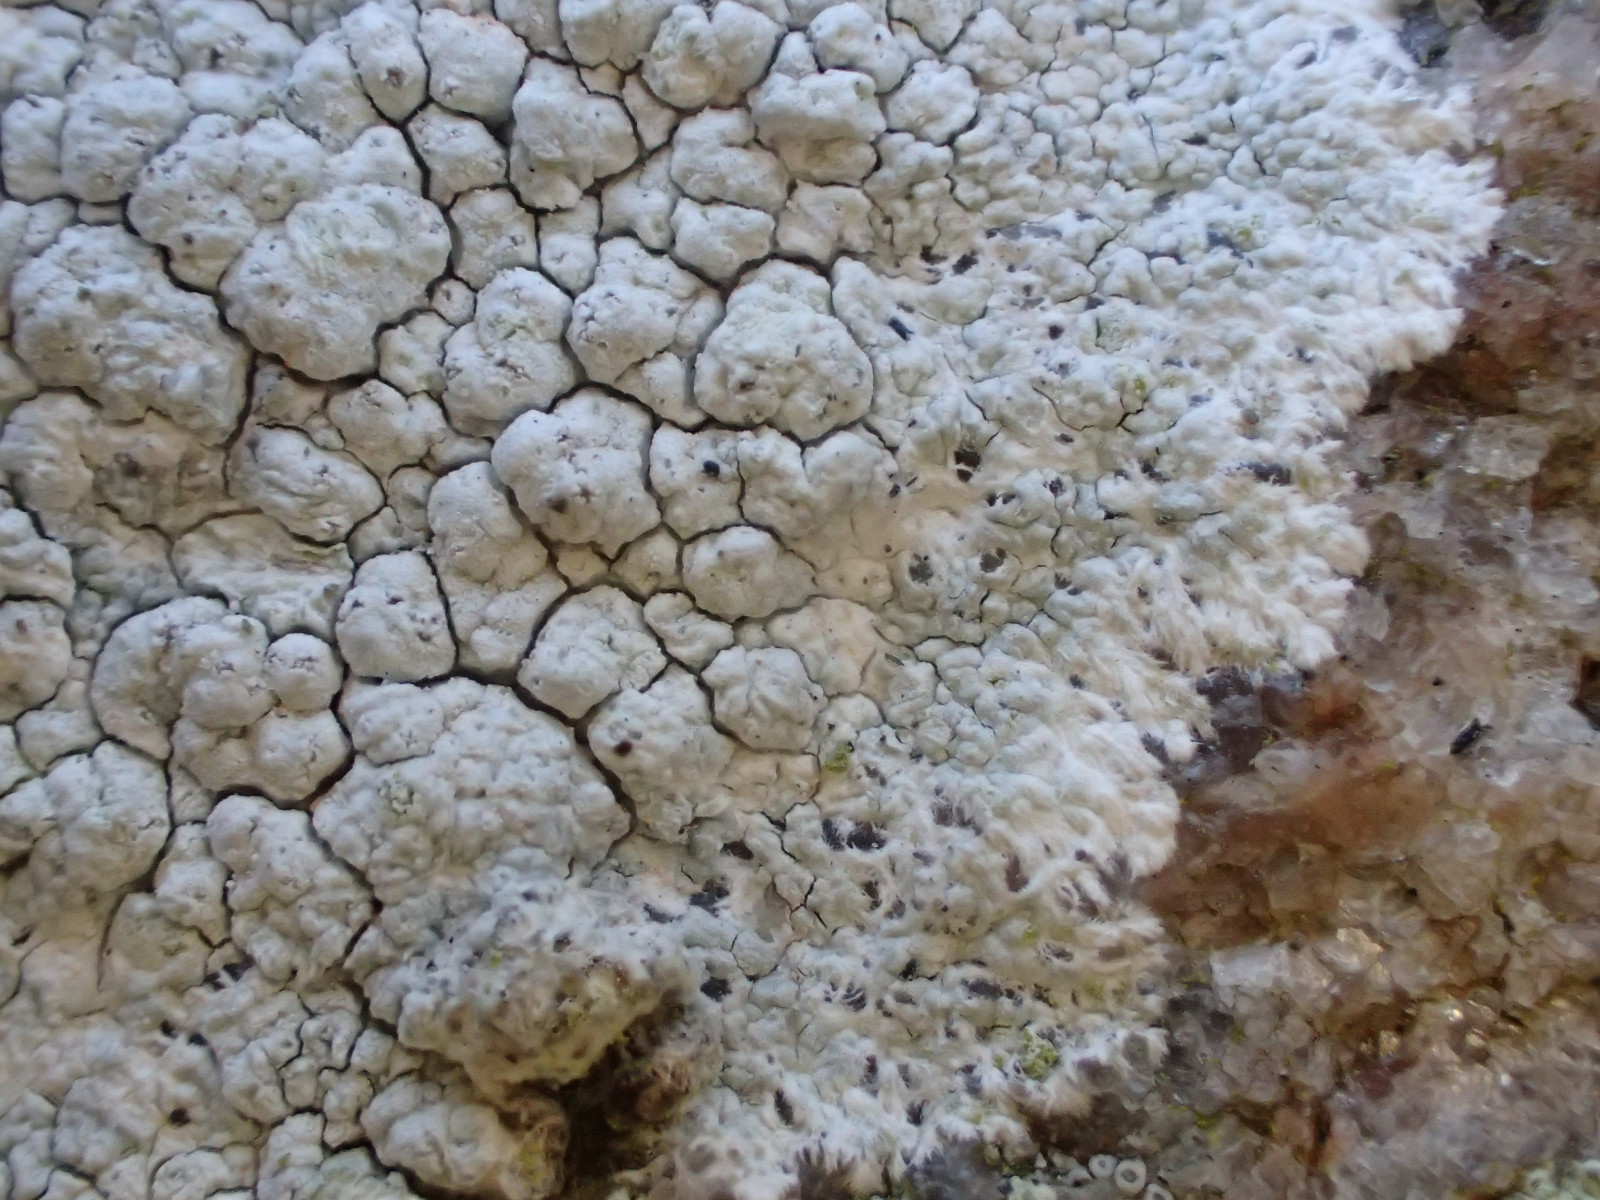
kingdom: Fungi
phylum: Ascomycota
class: Lecanoromycetes
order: Lecanorales
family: Lecanoraceae
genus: Glaucomaria
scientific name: Glaucomaria rupicola
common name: stengærde-kantskivelav
